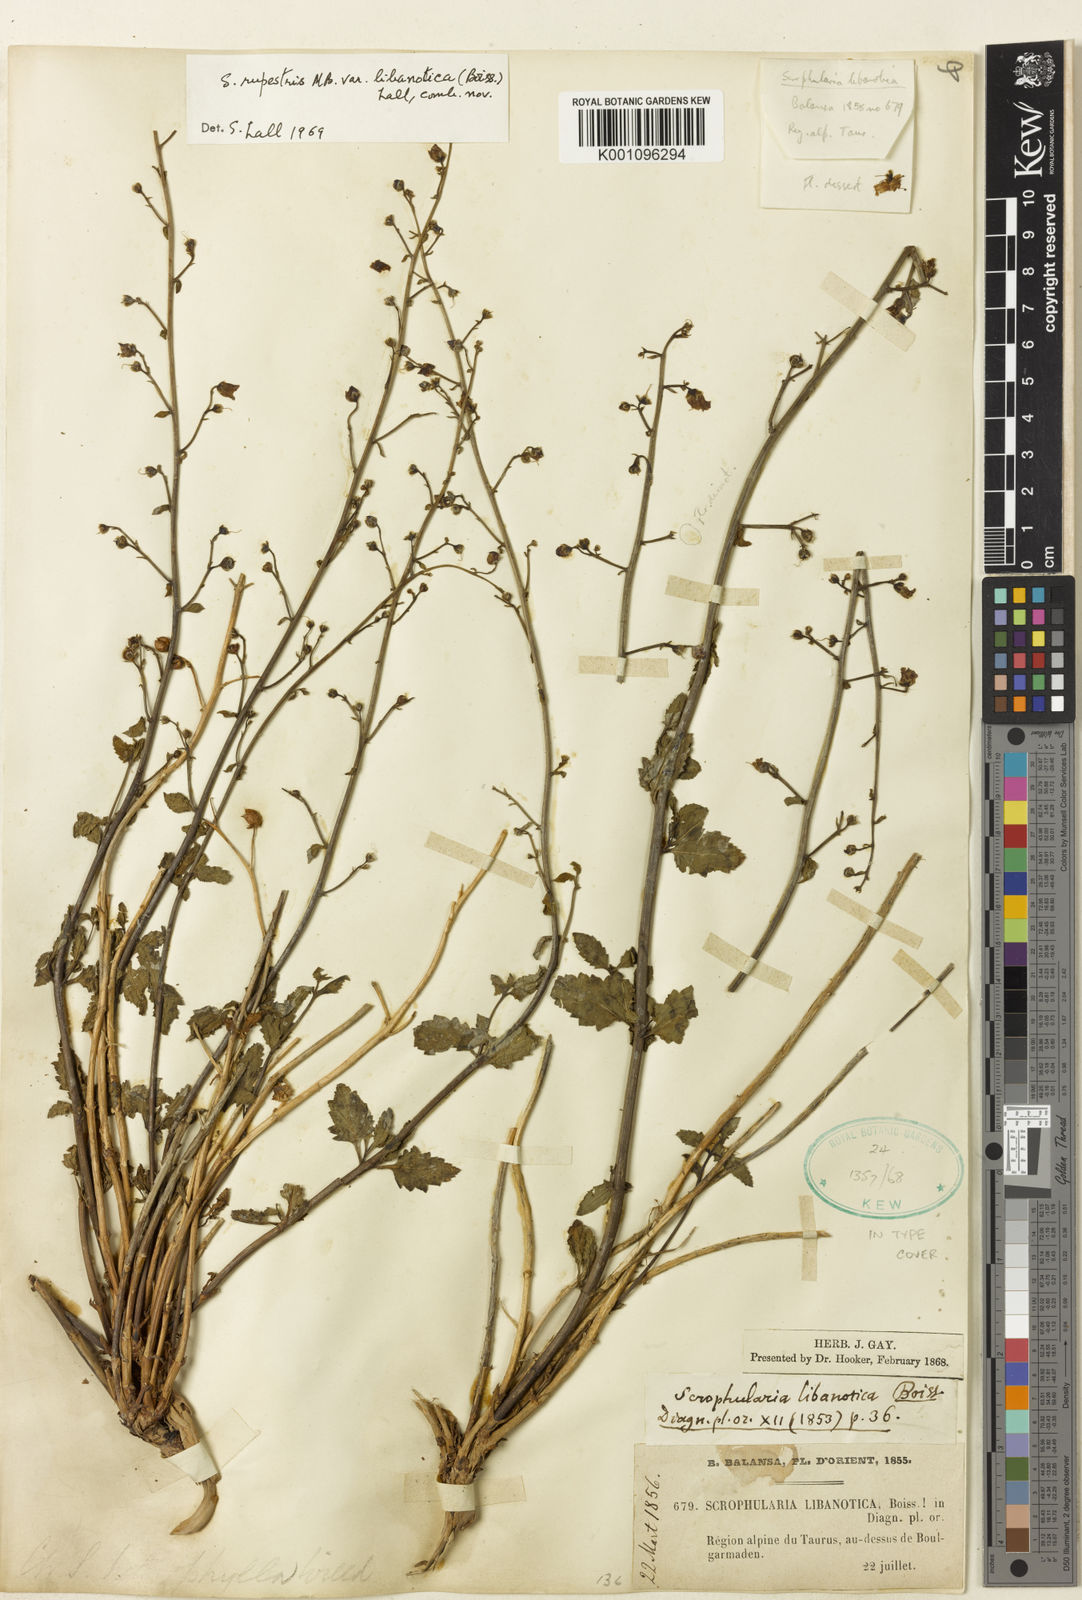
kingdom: Plantae
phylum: Tracheophyta
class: Magnoliopsida
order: Lamiales
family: Scrophulariaceae
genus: Scrophularia
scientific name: Scrophularia libanotica
